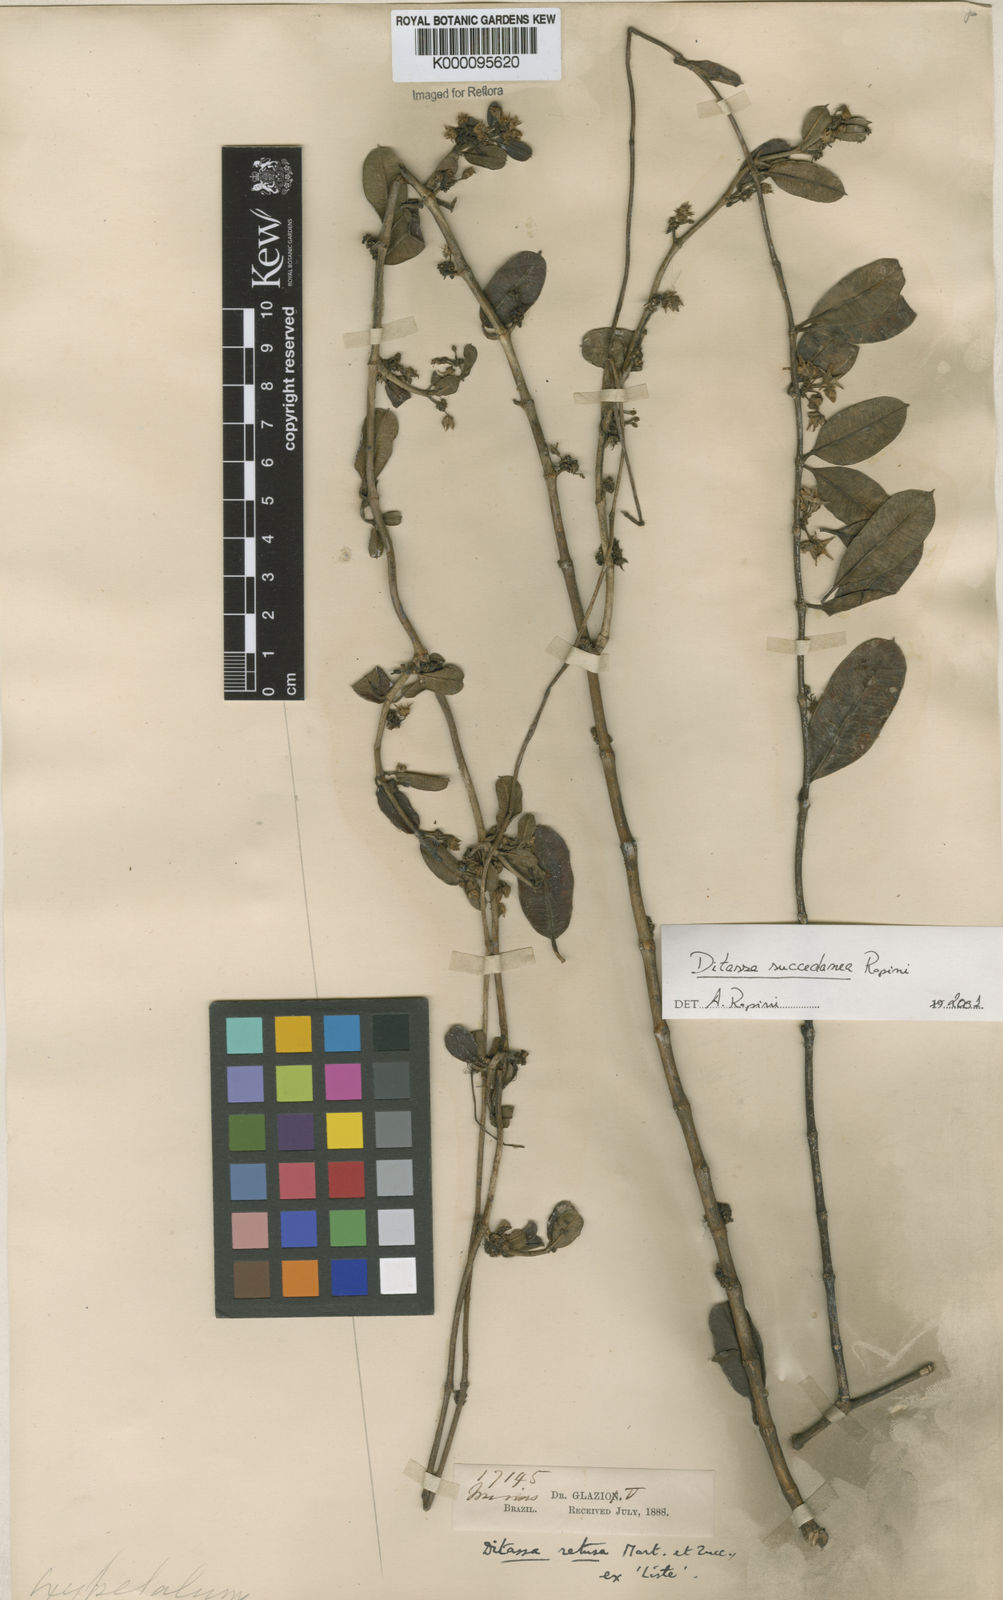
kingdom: Plantae
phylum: Tracheophyta
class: Magnoliopsida
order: Gentianales
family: Apocynaceae
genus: Ditassa
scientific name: Ditassa succedanea
